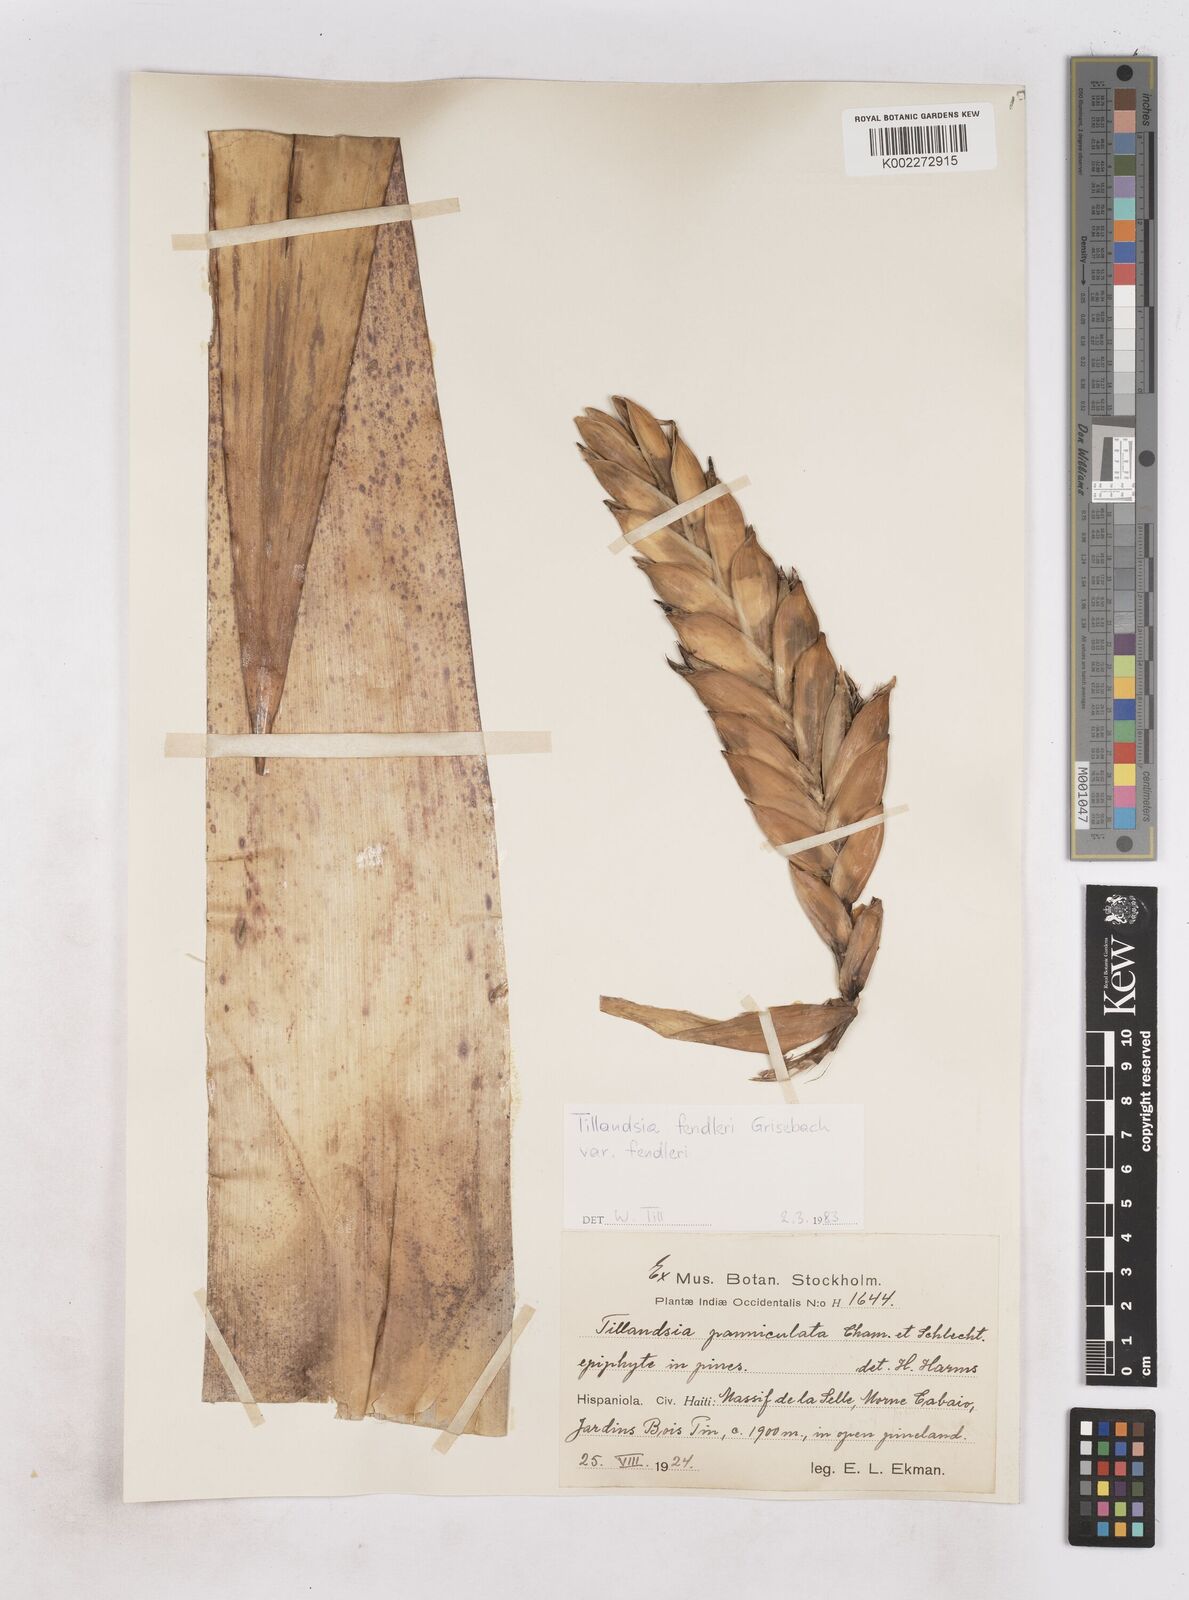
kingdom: Plantae
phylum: Tracheophyta
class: Liliopsida
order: Poales
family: Bromeliaceae
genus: Tillandsia
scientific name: Tillandsia fendleri
